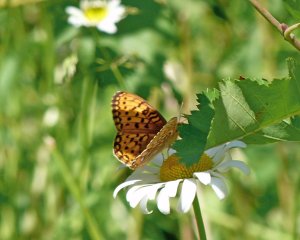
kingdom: Animalia
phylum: Arthropoda
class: Insecta
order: Lepidoptera
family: Nymphalidae
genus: Speyeria
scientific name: Speyeria callippe
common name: Callippe Fritillary
